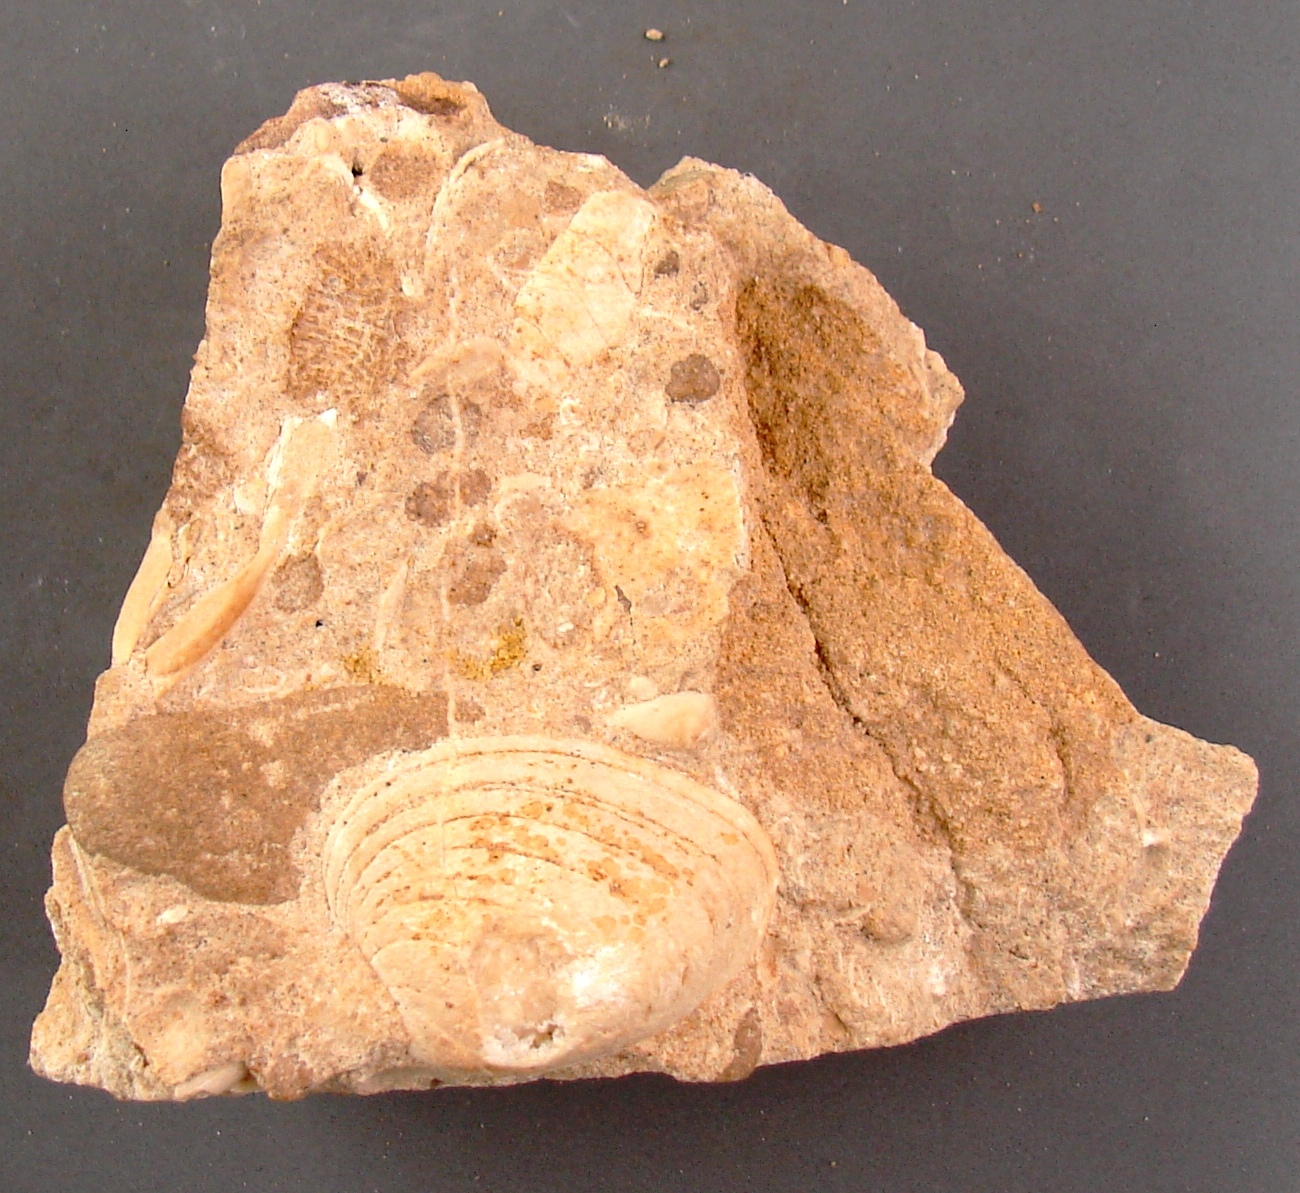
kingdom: Animalia
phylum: Mollusca
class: Gastropoda
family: Pseudomelaniidae
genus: Bourgetia
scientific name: Bourgetia Turritella deshayesea
